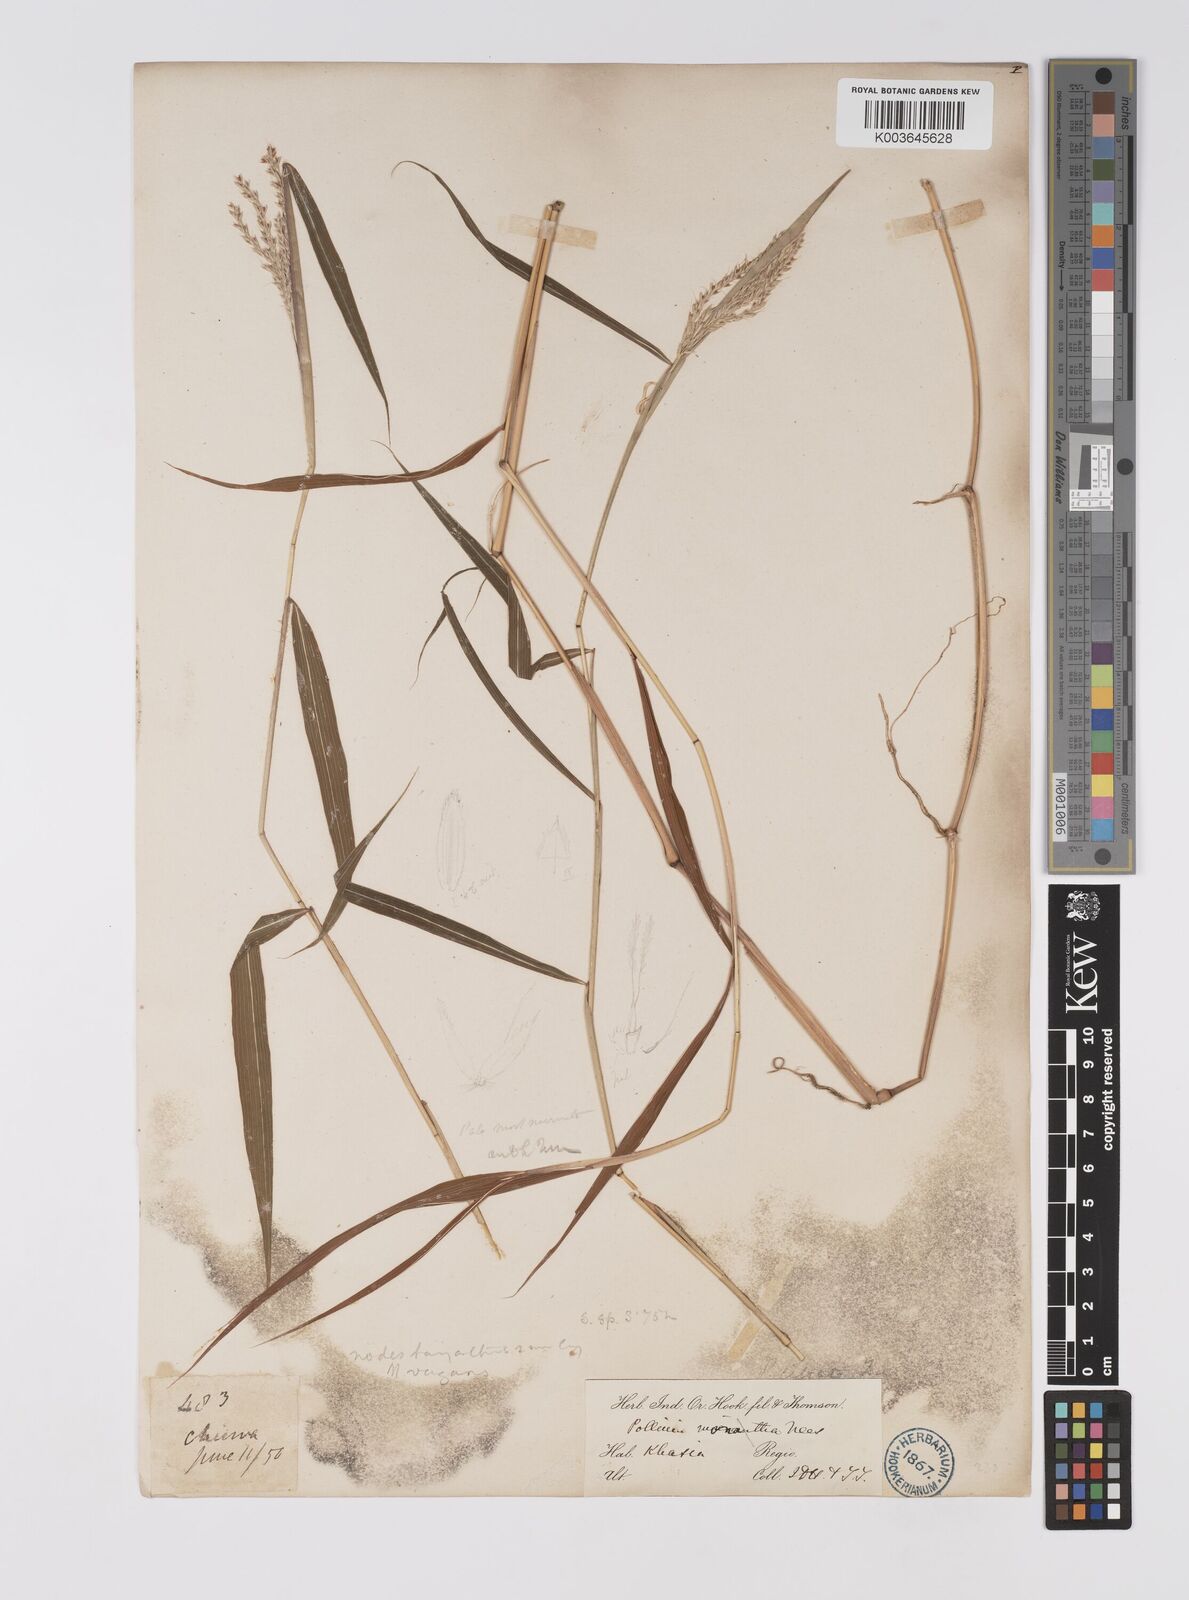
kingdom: Plantae
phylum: Tracheophyta
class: Liliopsida
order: Poales
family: Poaceae
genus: Microstegium
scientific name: Microstegium fasciculatum
